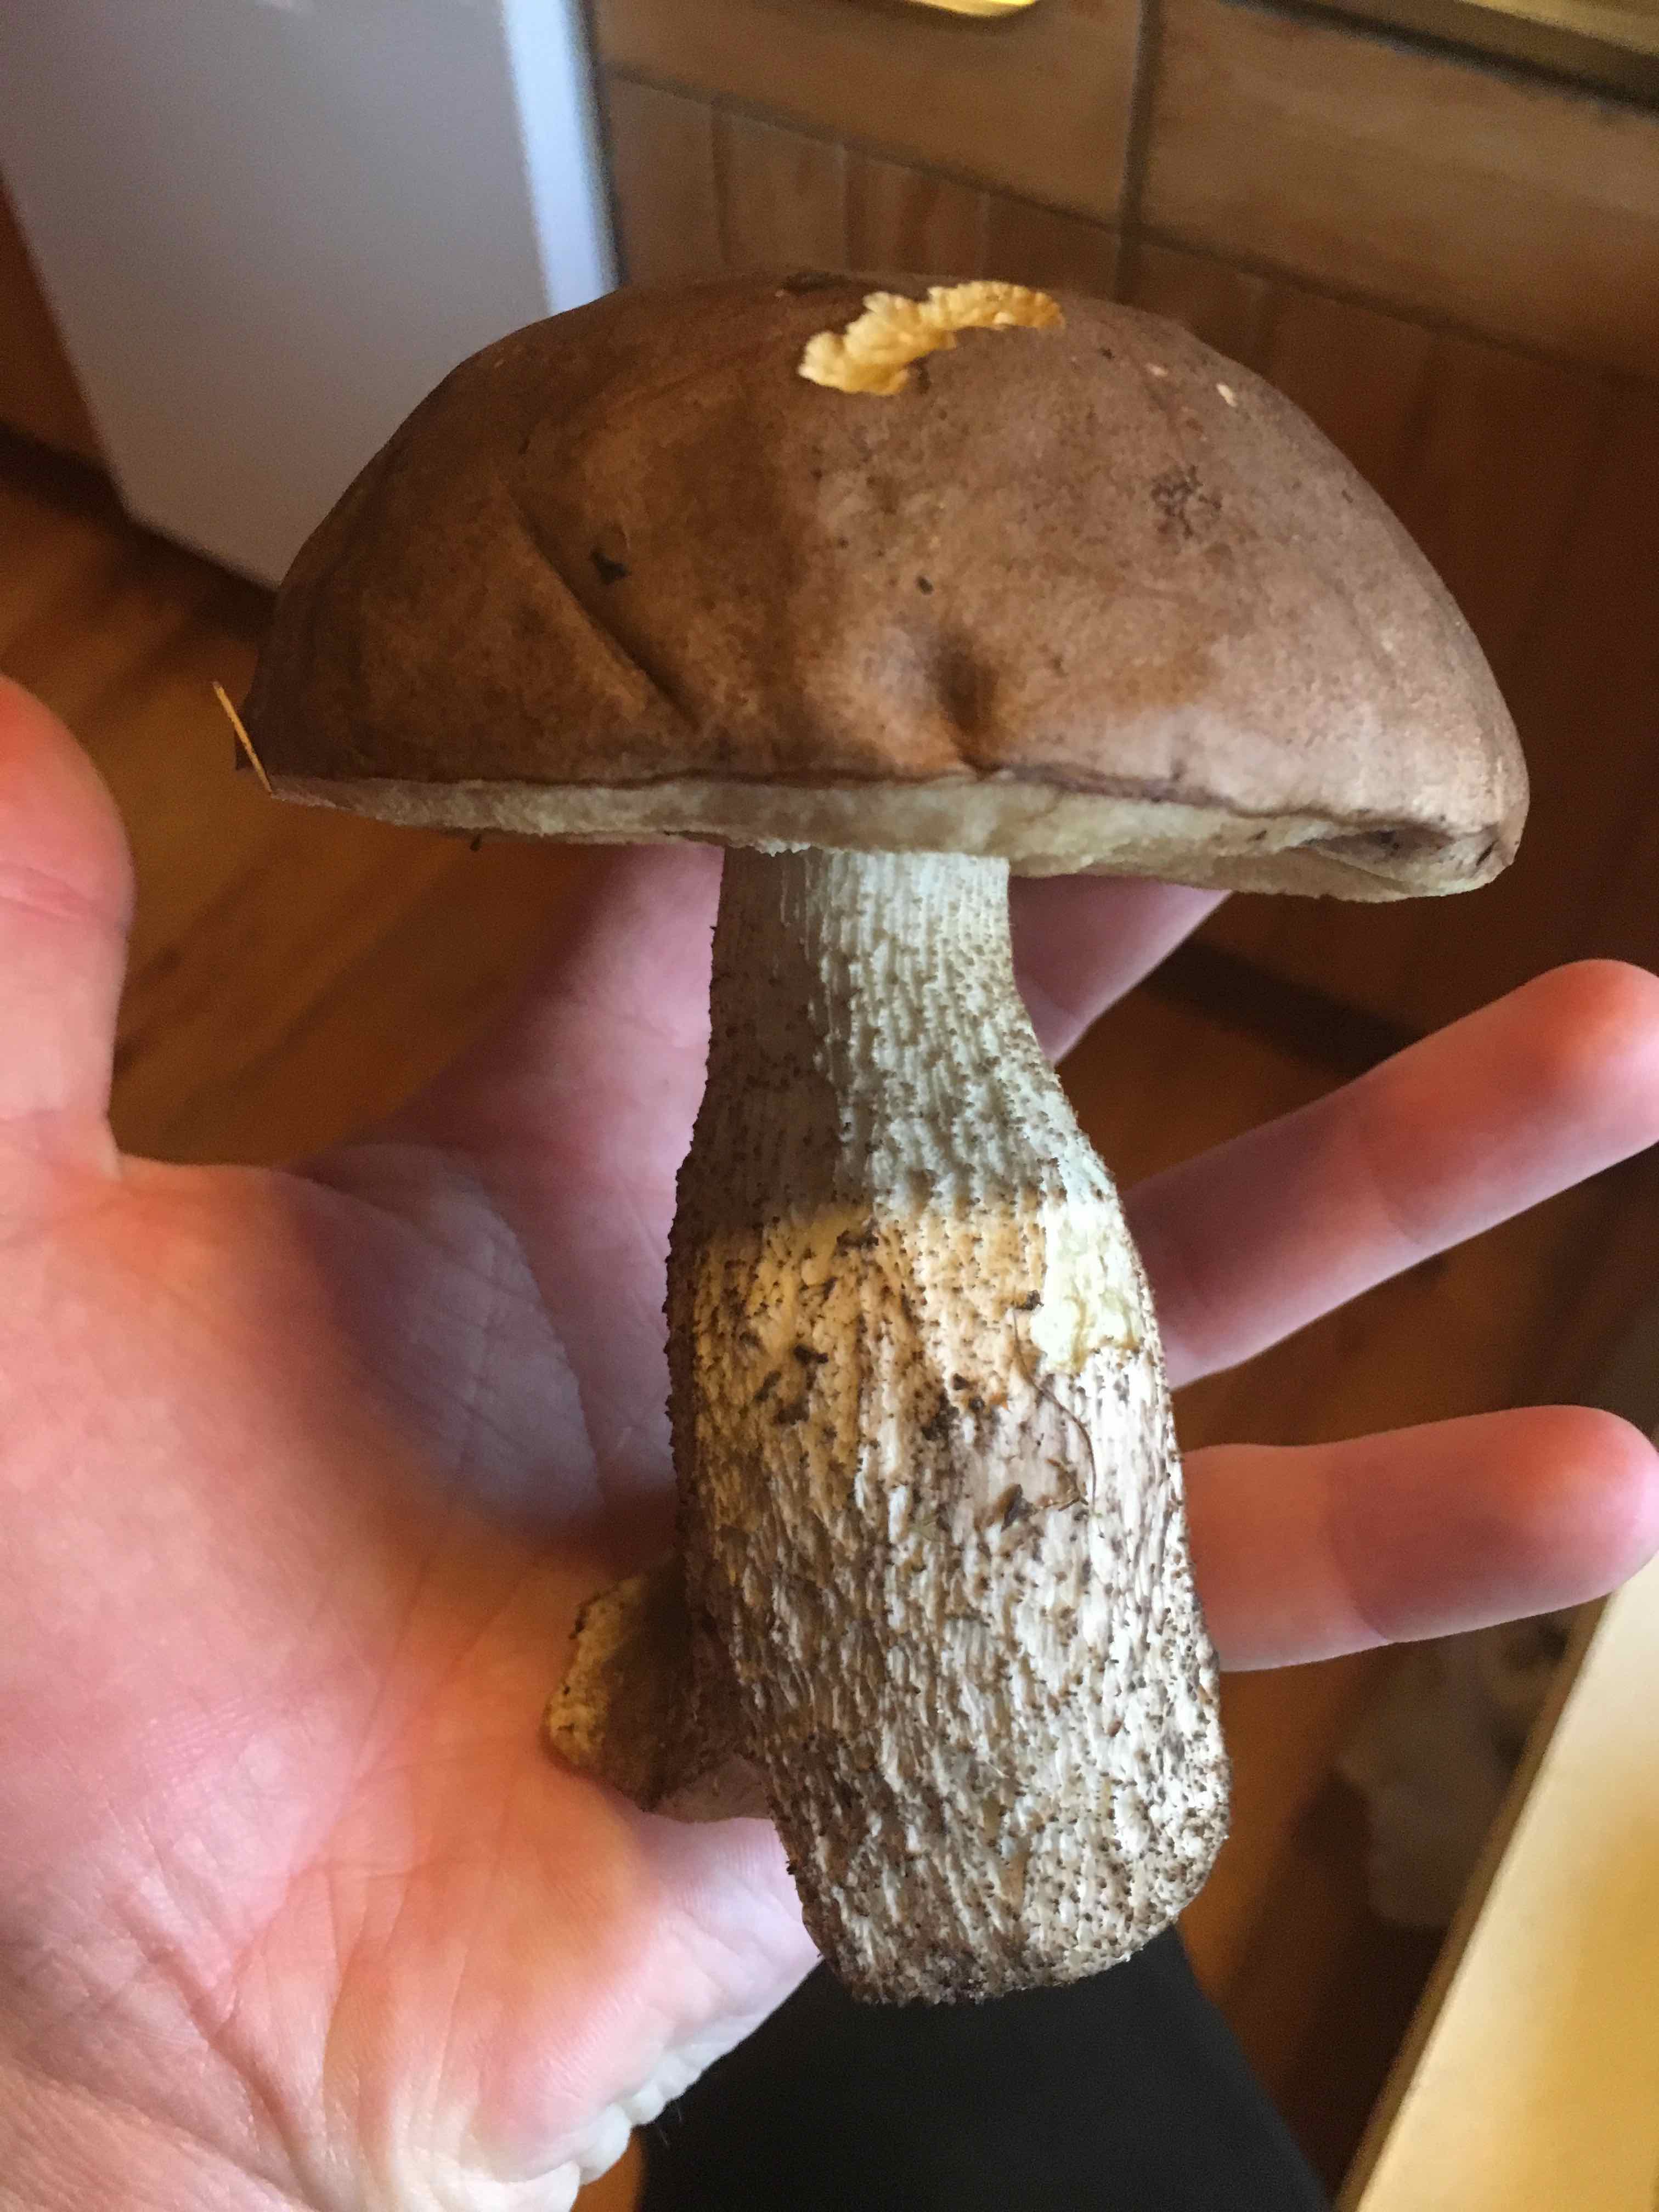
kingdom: Fungi
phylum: Basidiomycota
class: Agaricomycetes
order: Boletales
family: Boletaceae
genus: Leccinum
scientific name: Leccinum scabrum
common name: brun skælrørhat
